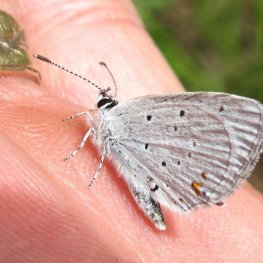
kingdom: Animalia
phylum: Arthropoda
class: Insecta
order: Lepidoptera
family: Lycaenidae
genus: Elkalyce
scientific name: Elkalyce amyntula
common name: Western Tailed-Blue
